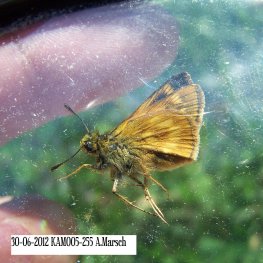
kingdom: Animalia
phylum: Arthropoda
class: Insecta
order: Lepidoptera
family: Hesperiidae
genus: Polites
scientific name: Polites
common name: Long Dash Skipper
